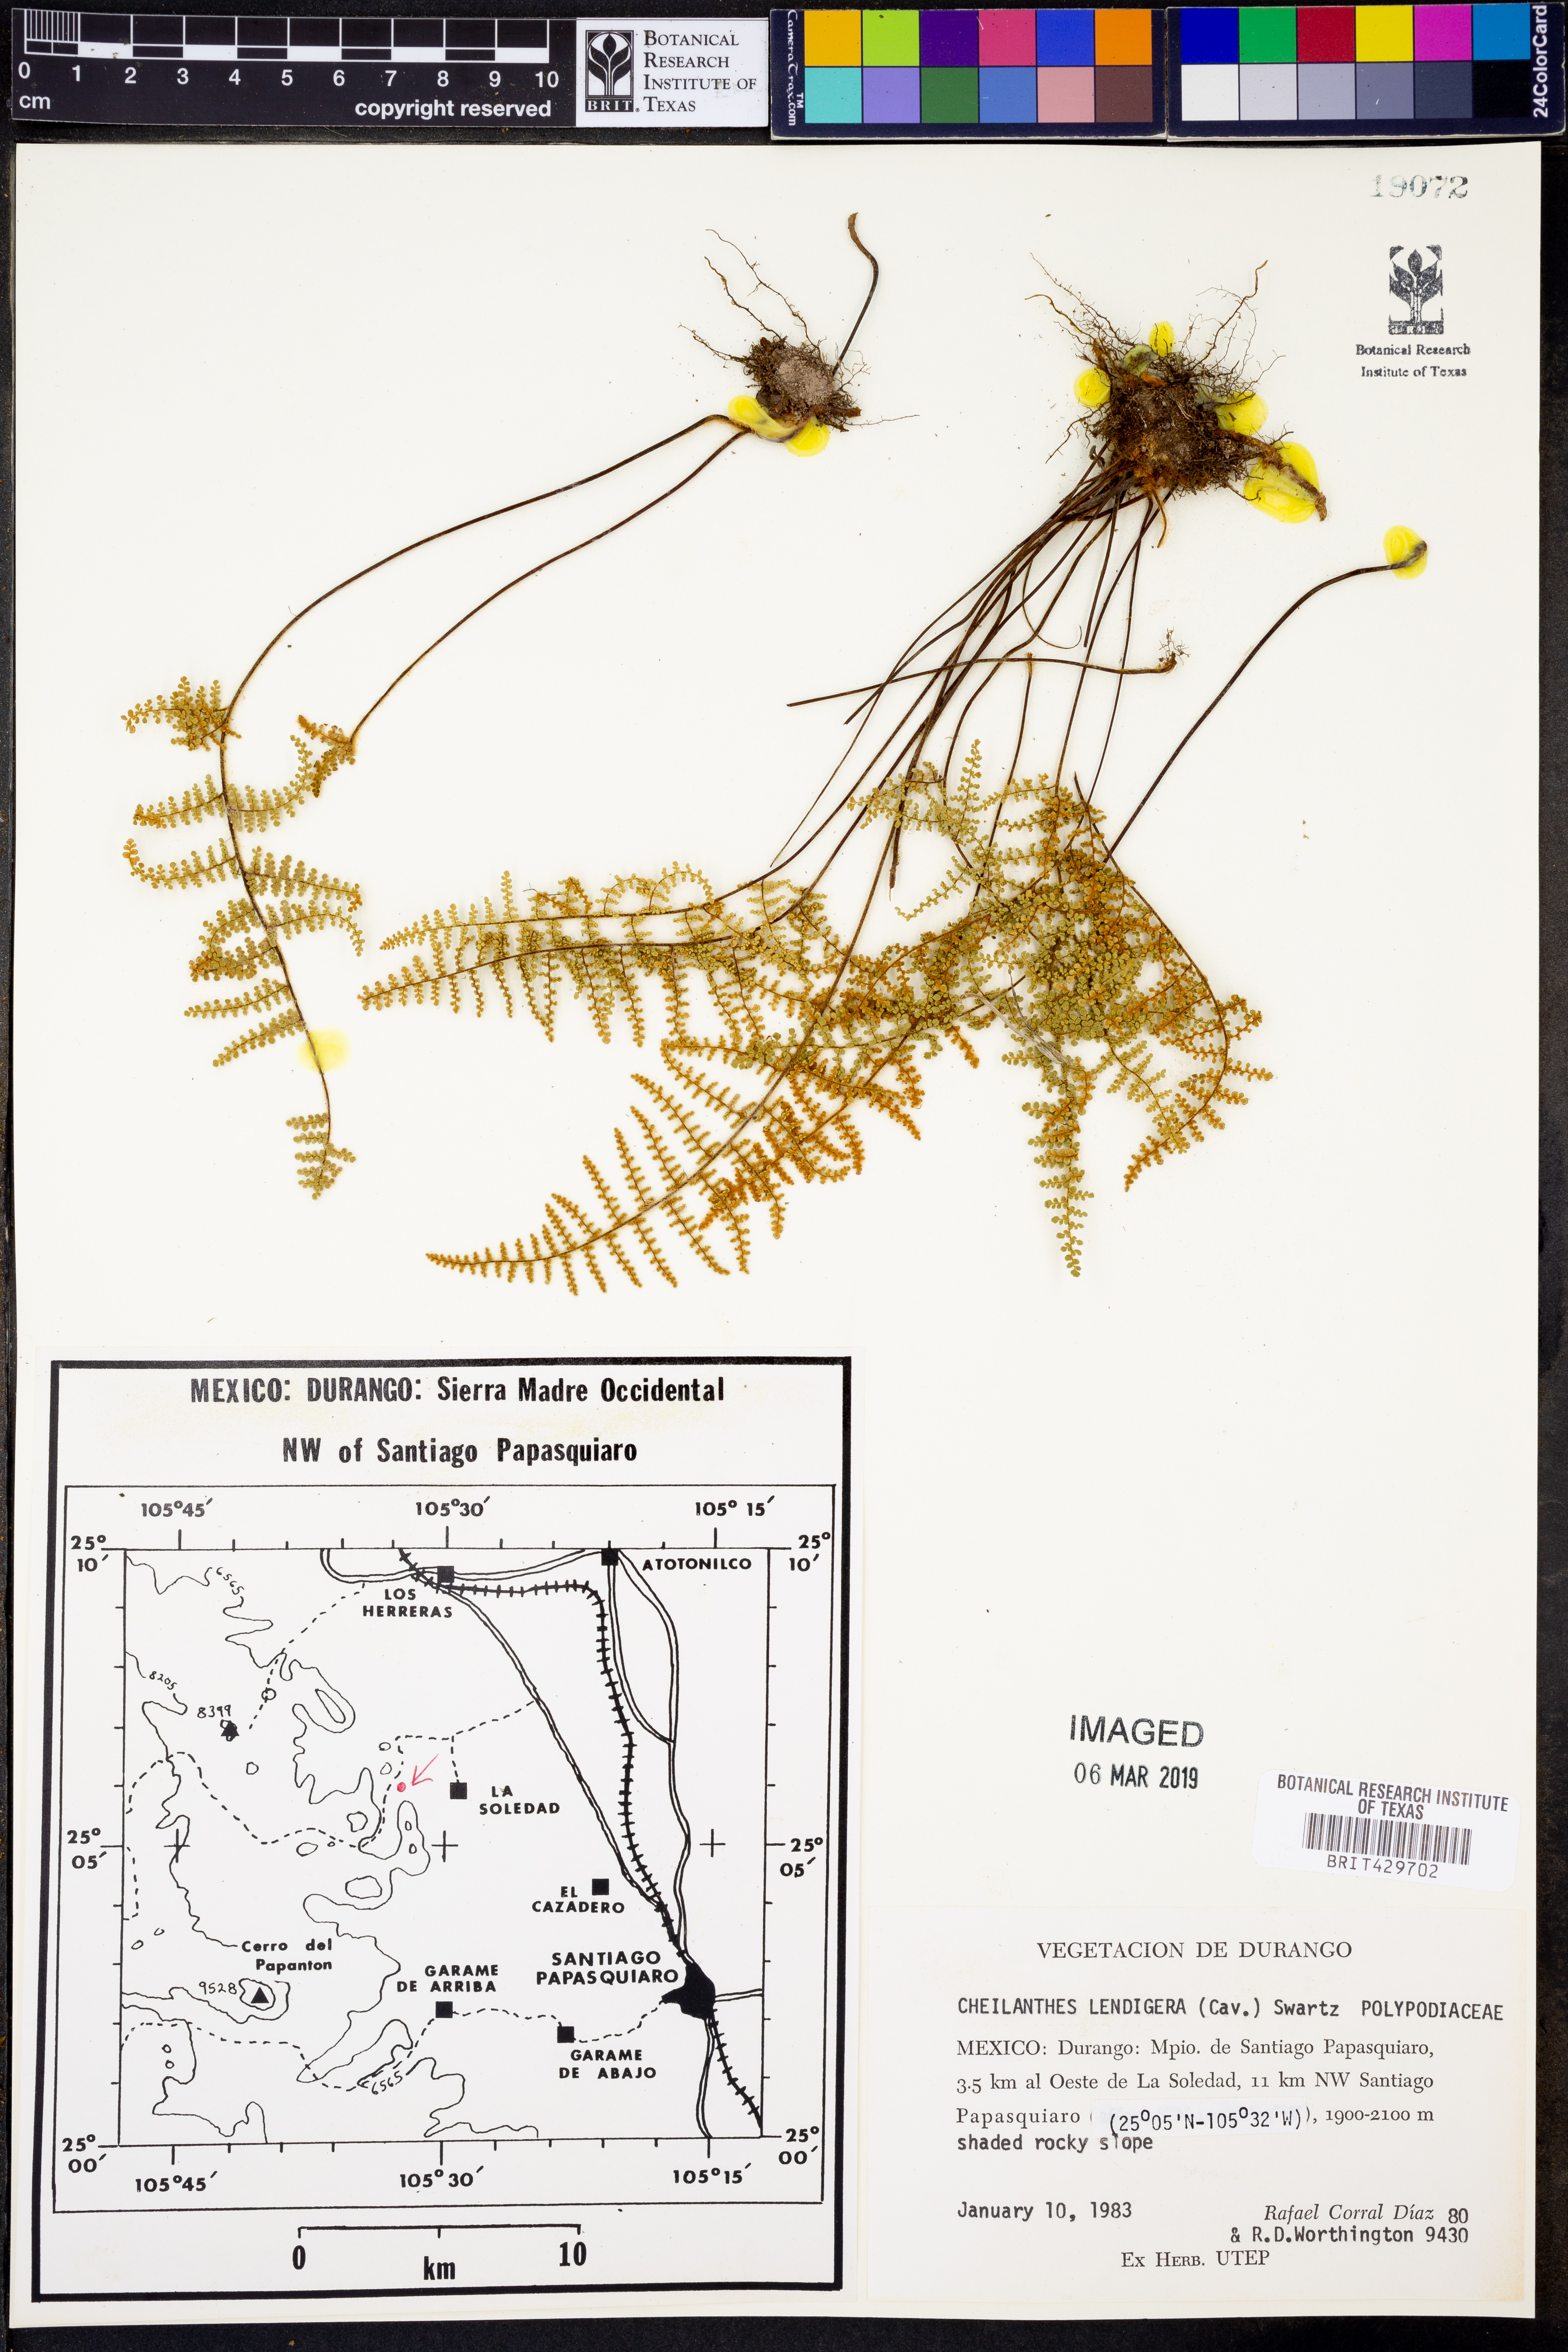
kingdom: Plantae
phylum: Tracheophyta
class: Polypodiopsida
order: Polypodiales
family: Pteridaceae
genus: Myriopteris
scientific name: Myriopteris lendigera
